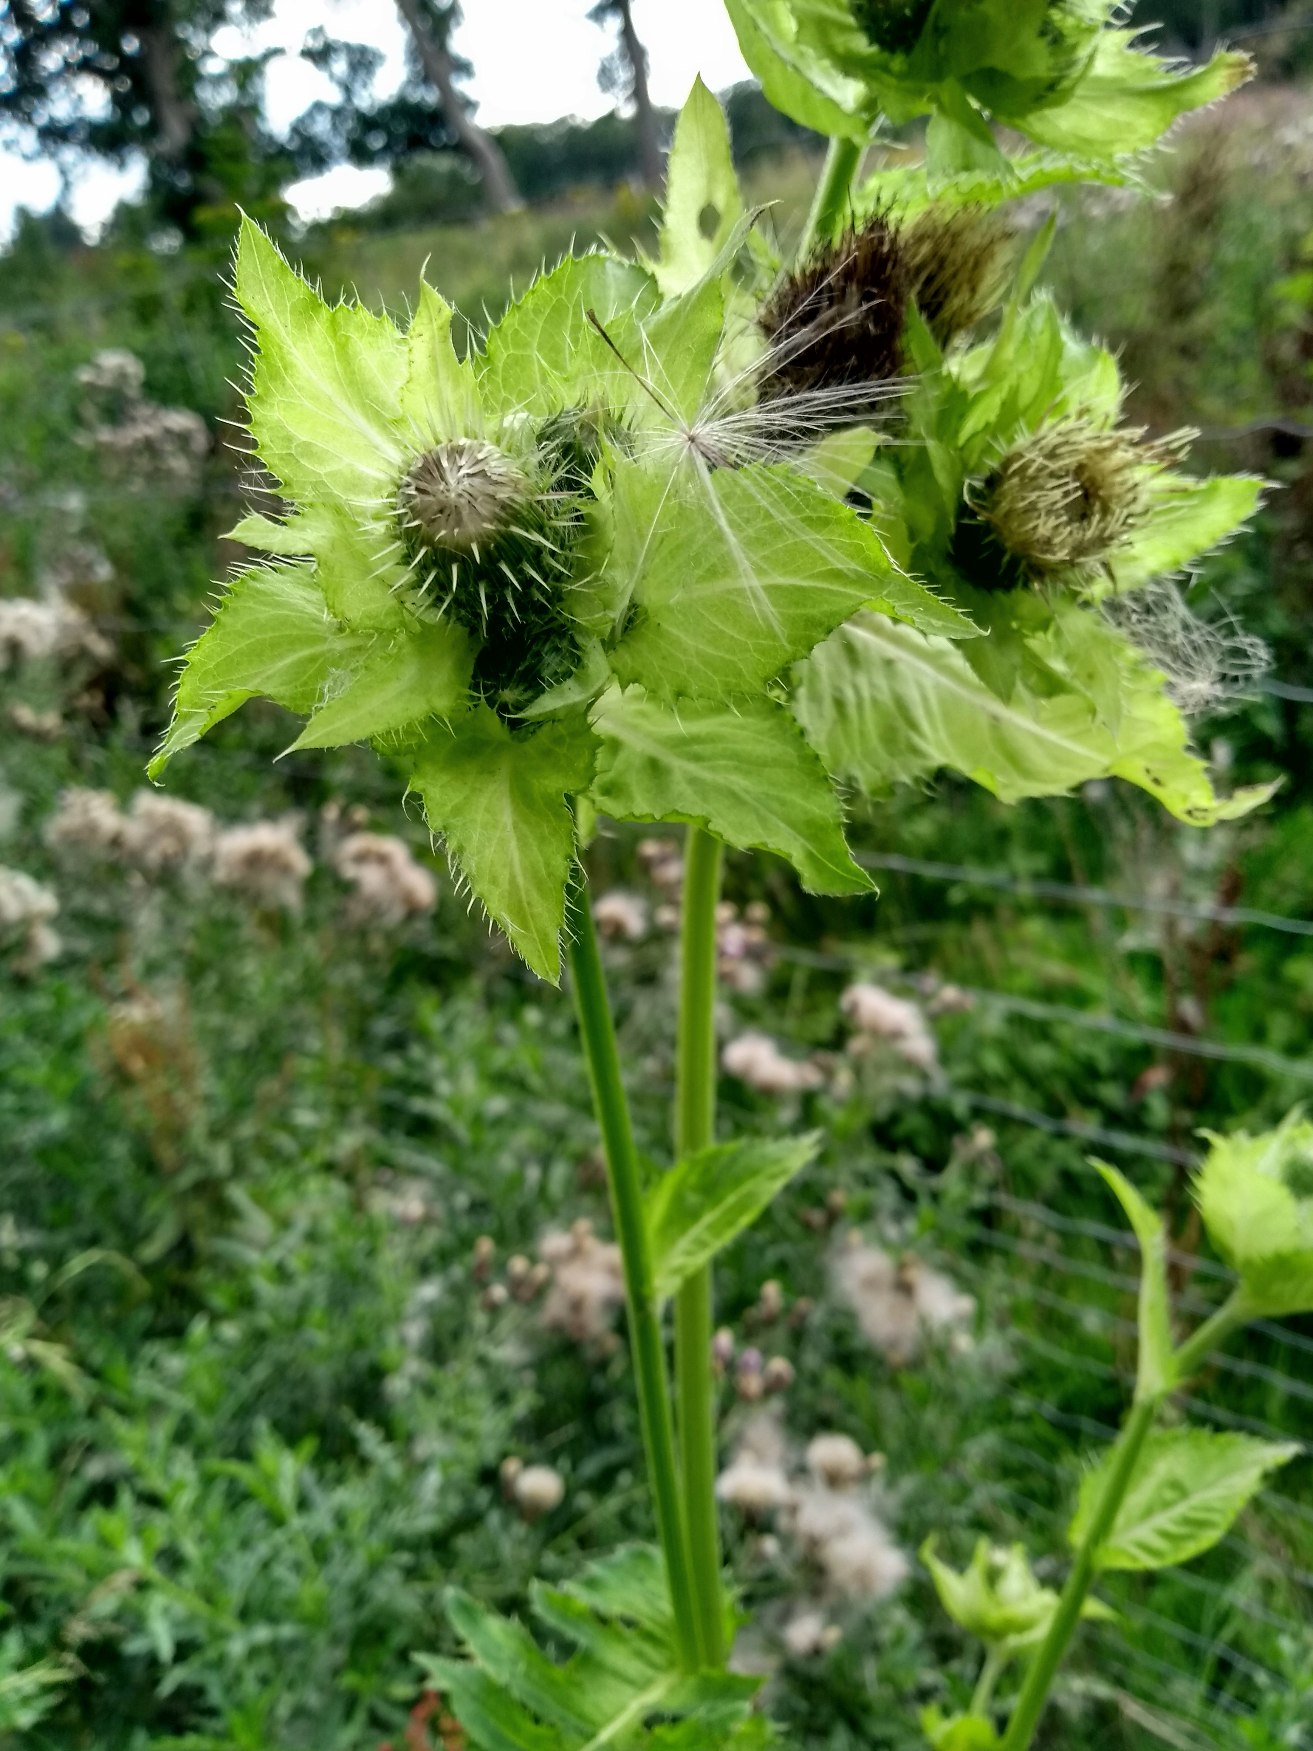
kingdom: Plantae
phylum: Tracheophyta
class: Magnoliopsida
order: Asterales
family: Asteraceae
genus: Cirsium
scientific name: Cirsium oleraceum
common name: Kål-tidsel
